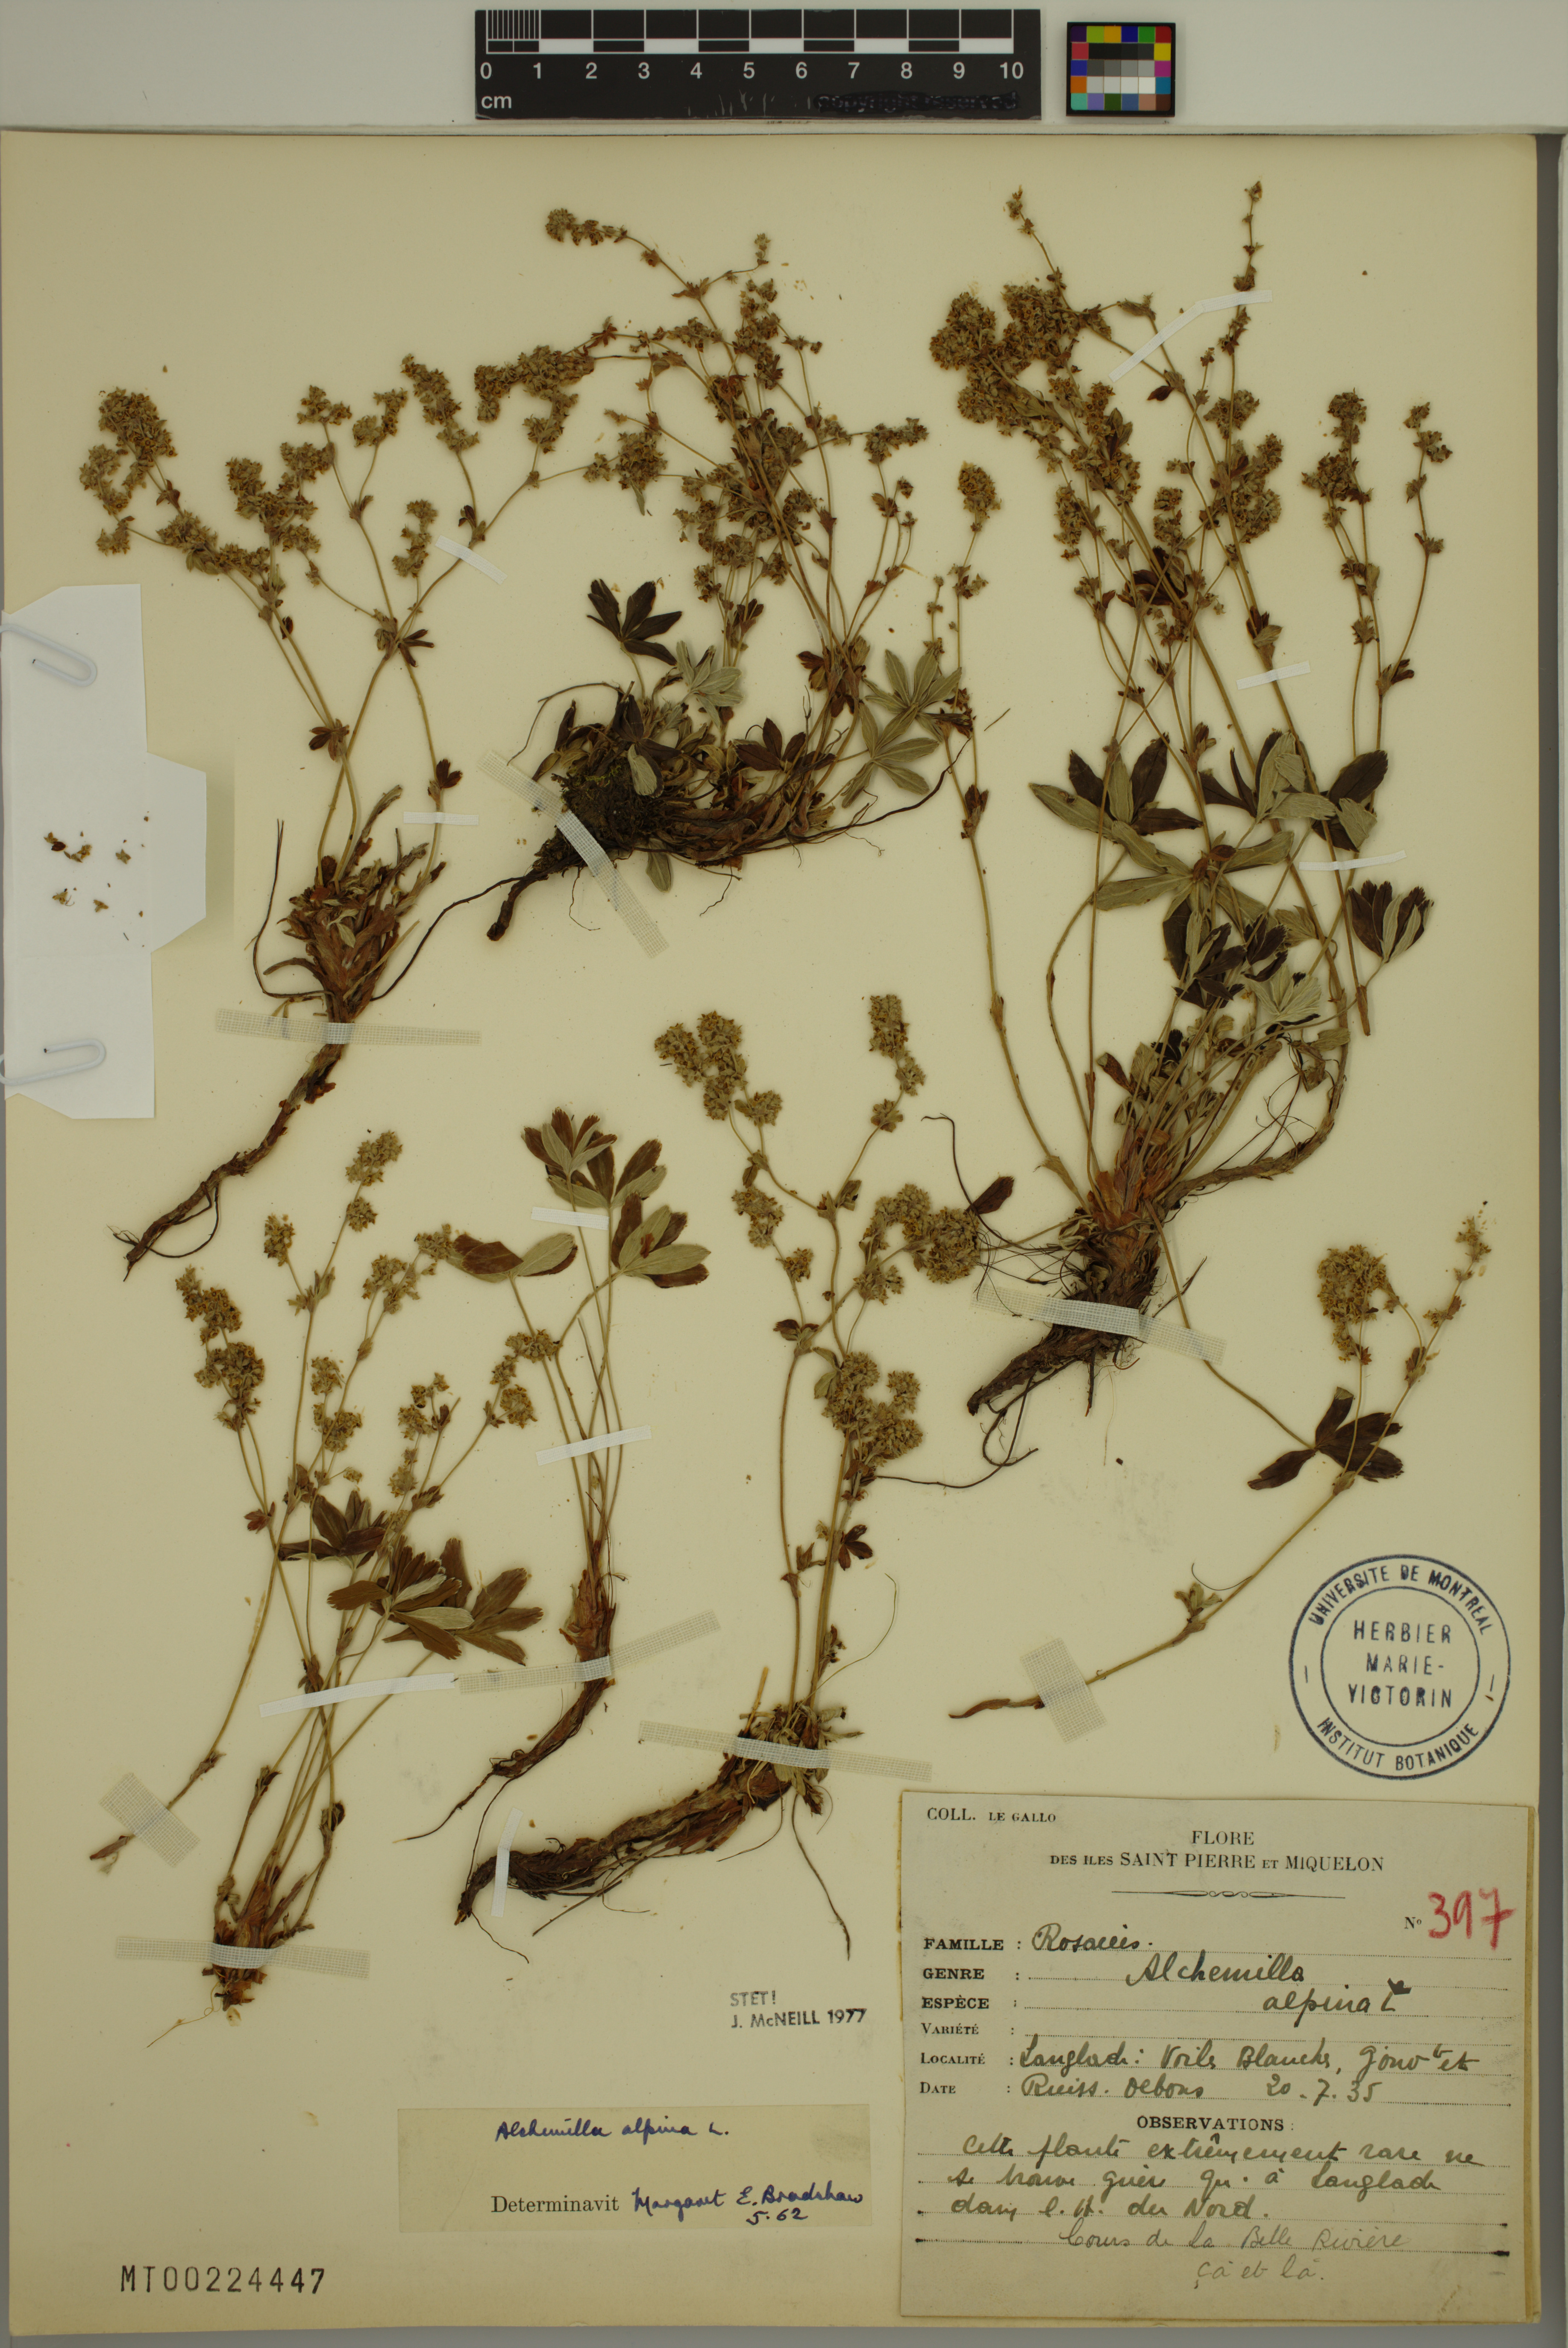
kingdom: Plantae
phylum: Tracheophyta
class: Magnoliopsida
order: Rosales
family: Rosaceae
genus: Alchemilla
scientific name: Alchemilla alpina
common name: Alpine lady's-mantle
